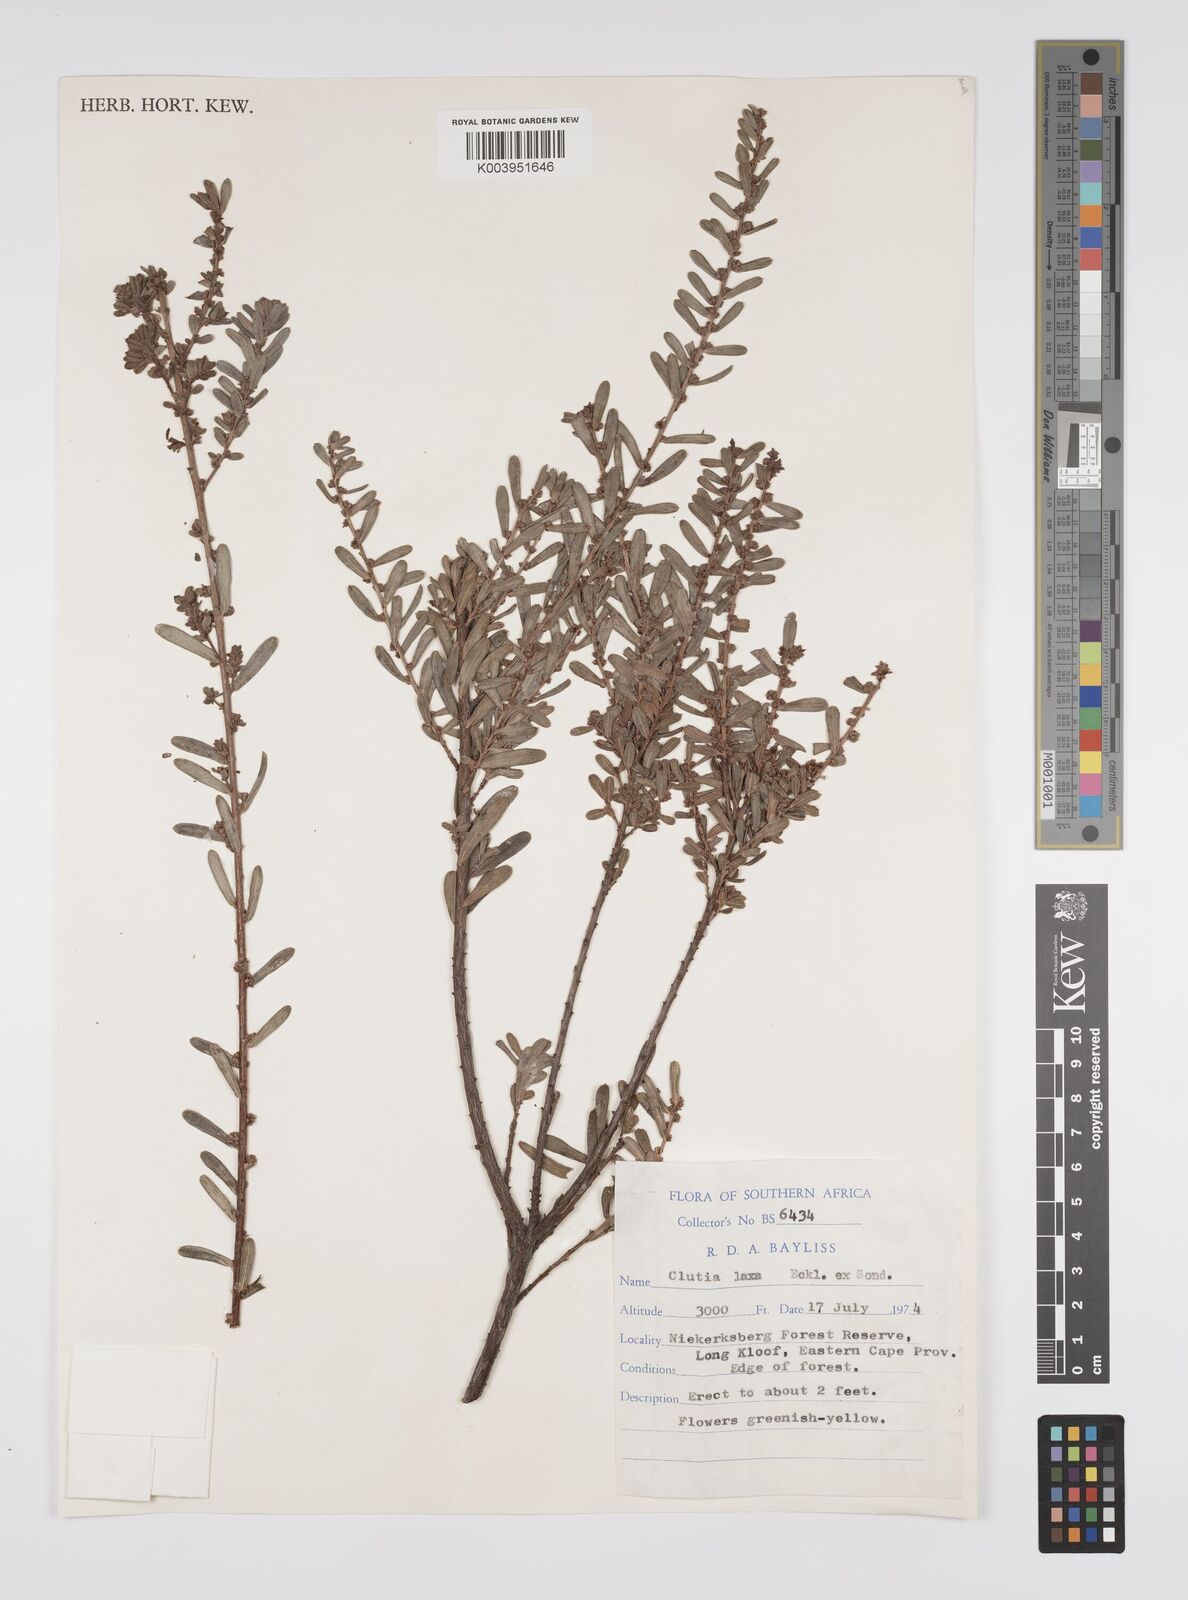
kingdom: Plantae
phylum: Tracheophyta
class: Magnoliopsida
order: Malpighiales
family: Peraceae
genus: Clutia
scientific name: Clutia laxa
